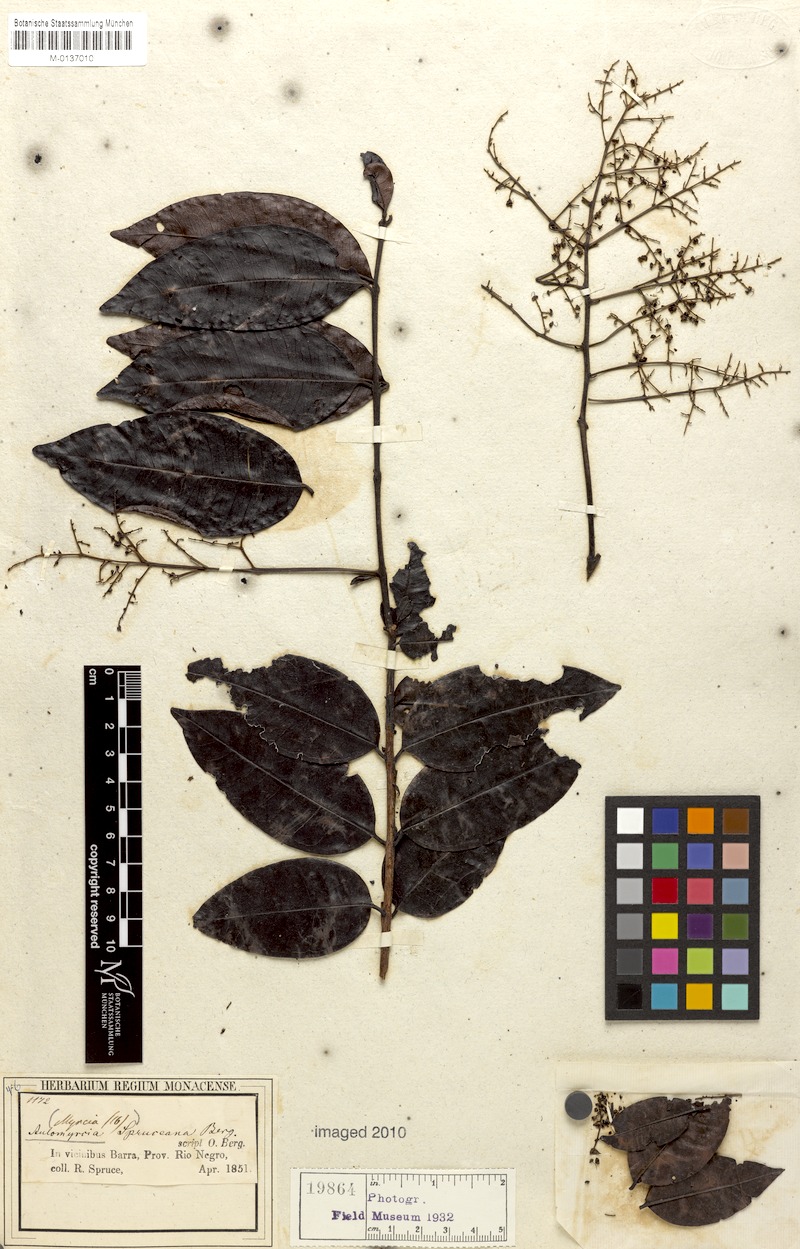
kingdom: Plantae
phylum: Tracheophyta
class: Magnoliopsida
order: Myrtales
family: Myrtaceae
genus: Myrcia
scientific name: Myrcia amazonica
